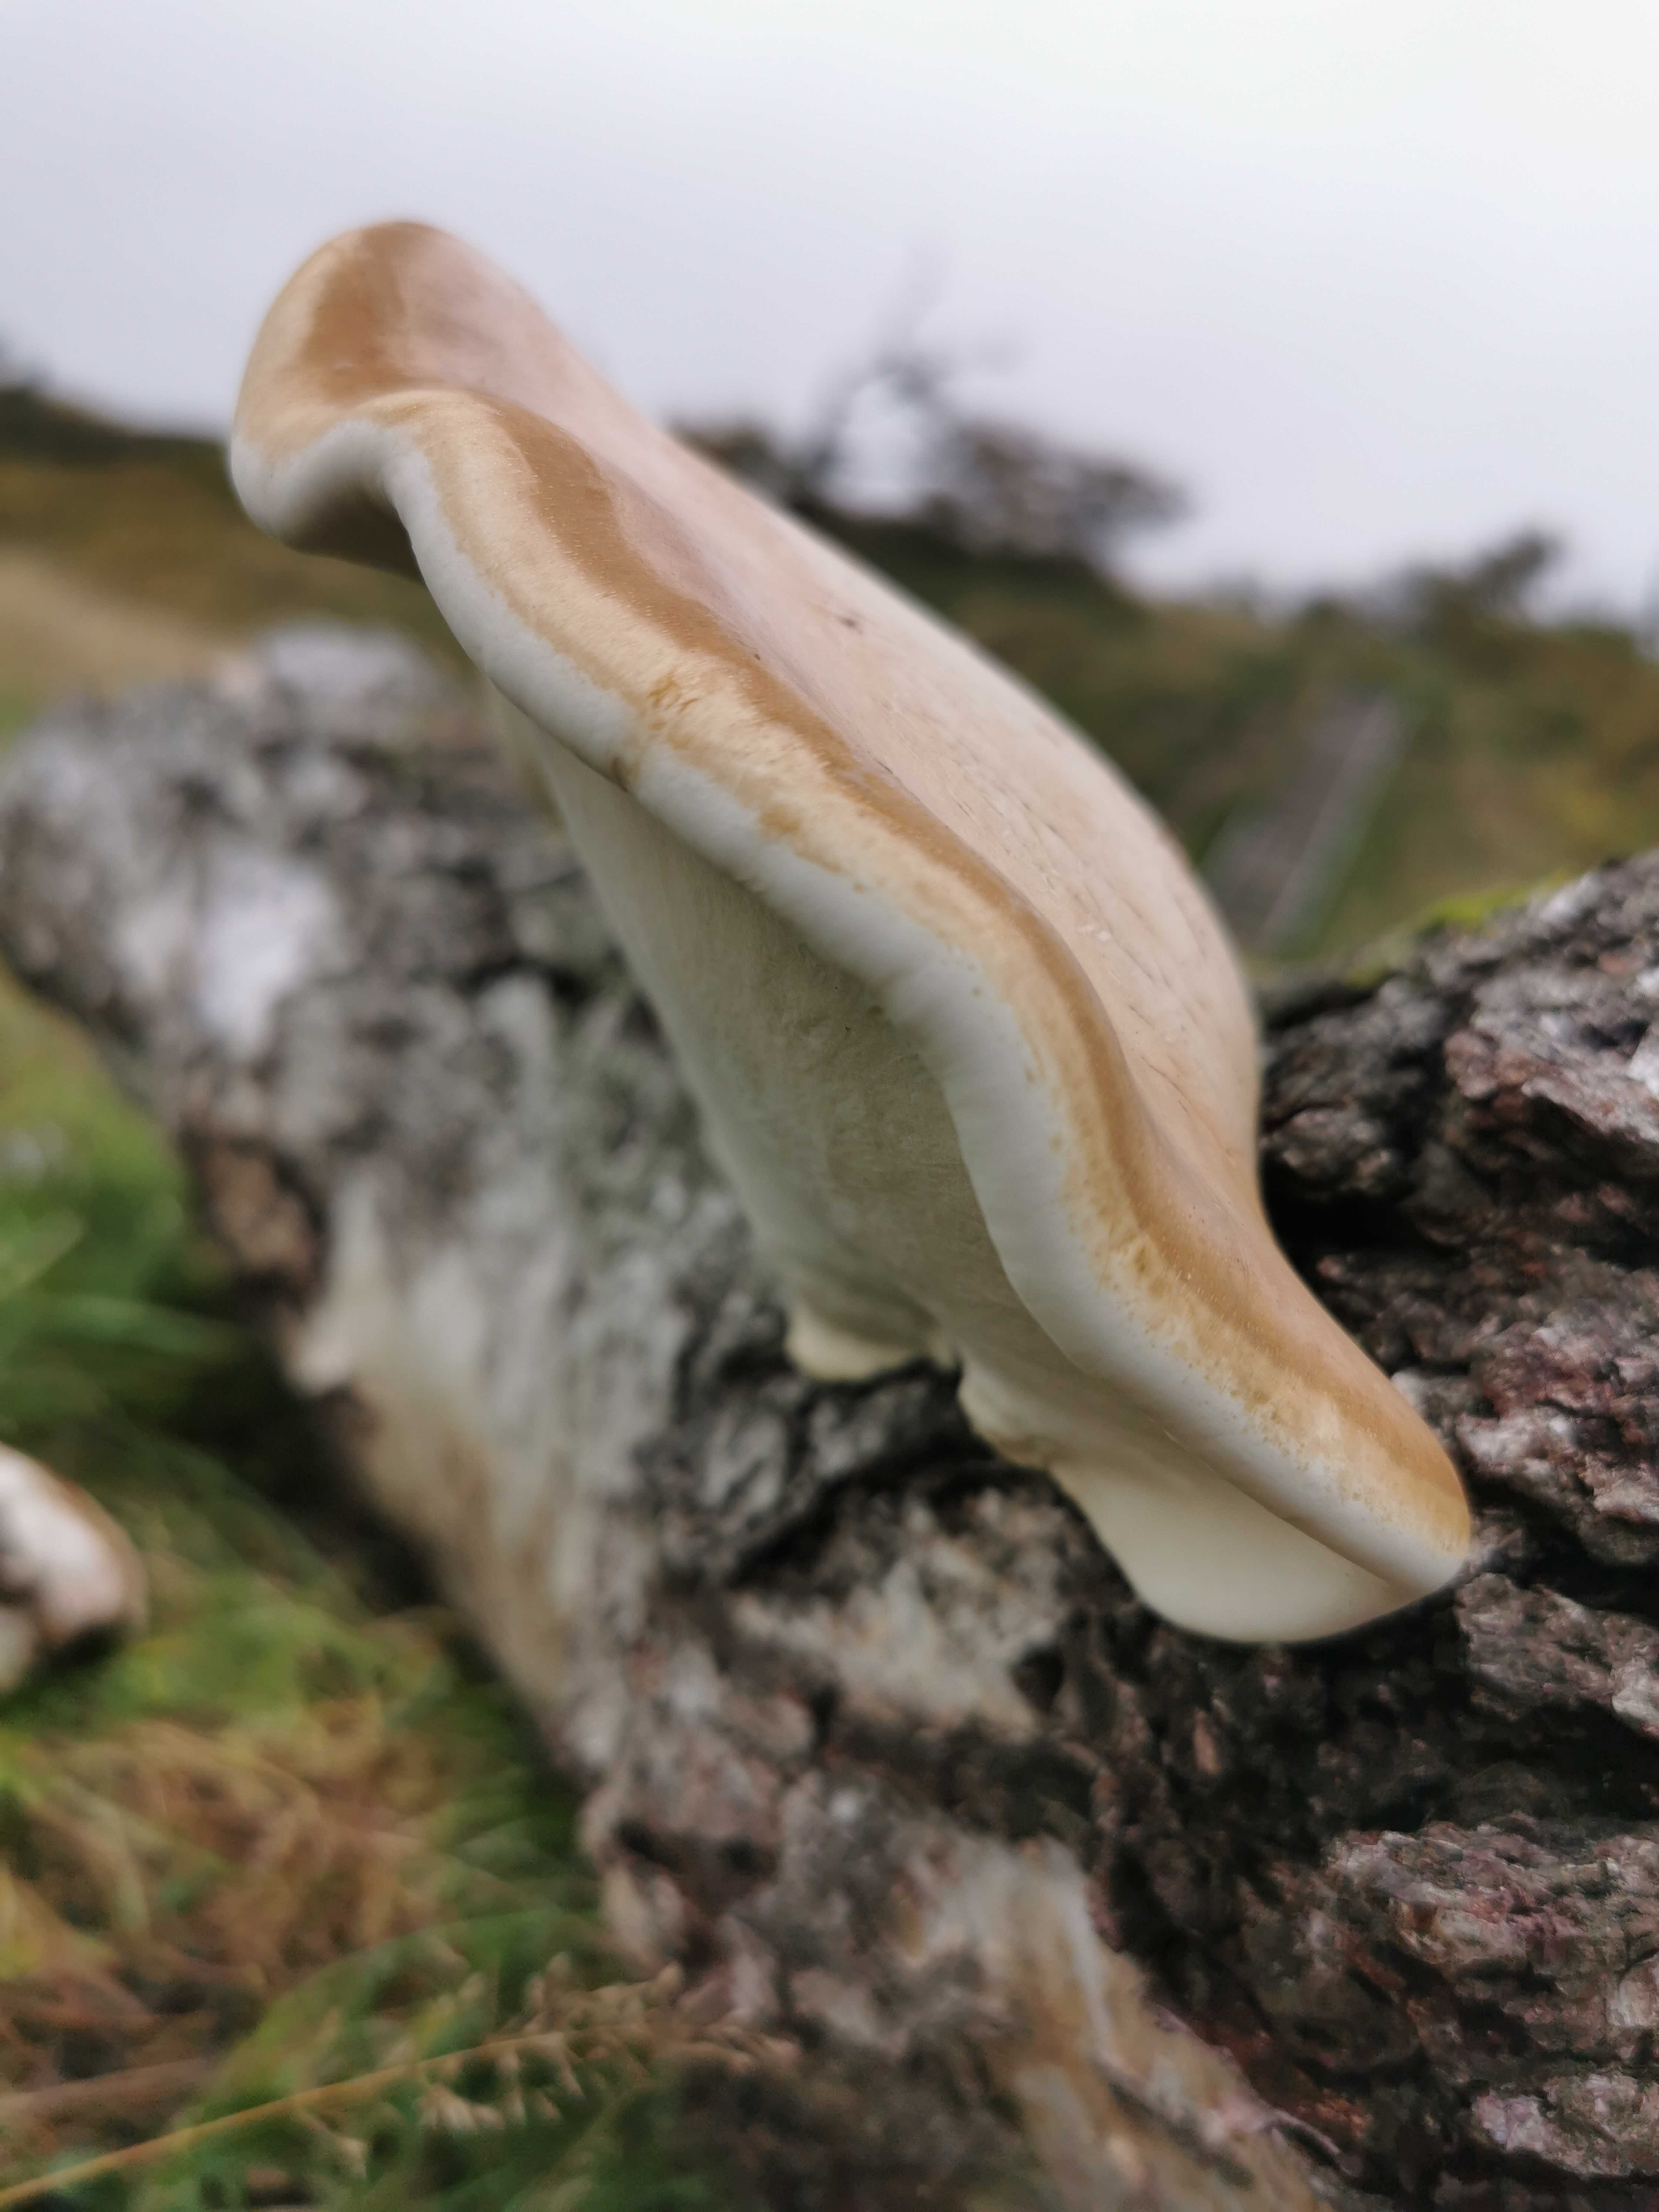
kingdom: Fungi
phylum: Basidiomycota
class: Agaricomycetes
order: Polyporales
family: Fomitopsidaceae
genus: Fomitopsis
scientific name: Fomitopsis betulina
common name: birkeporesvamp
